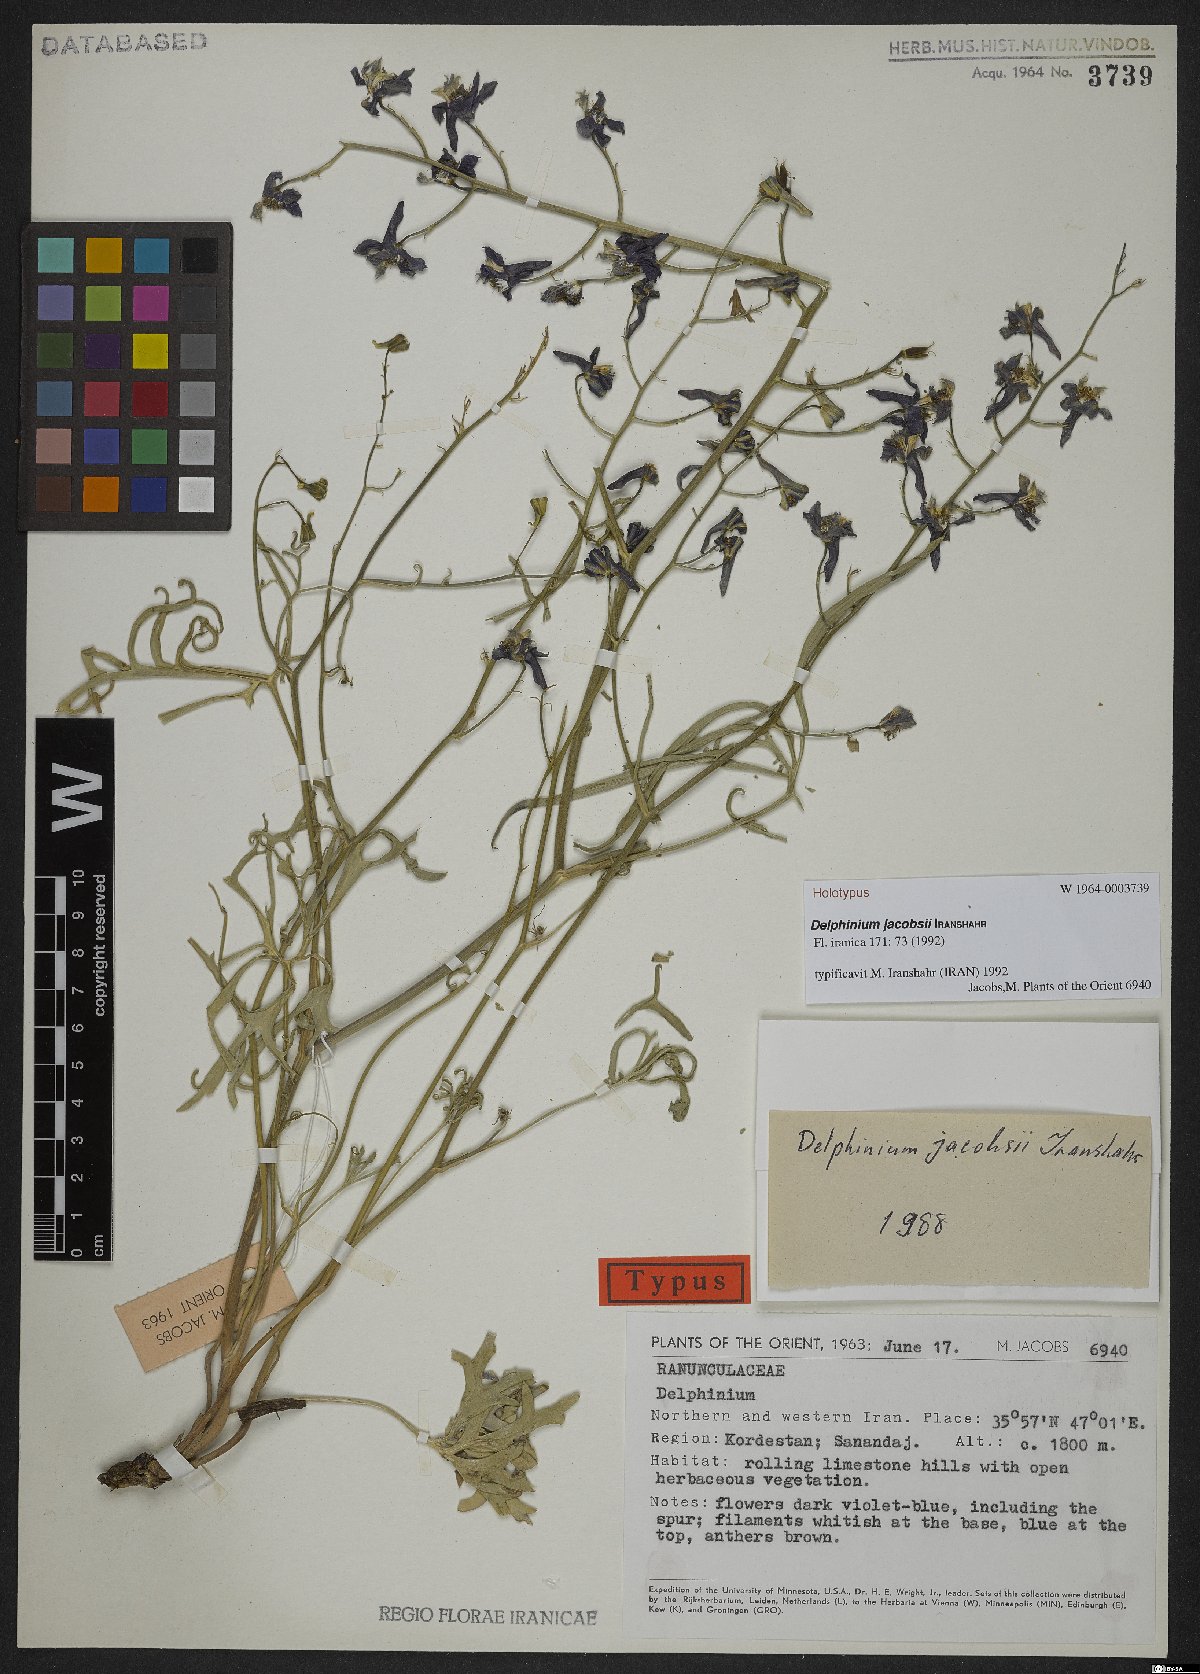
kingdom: Plantae
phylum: Tracheophyta
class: Magnoliopsida
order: Ranunculales
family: Ranunculaceae
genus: Delphinium
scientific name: Delphinium jacobsii
